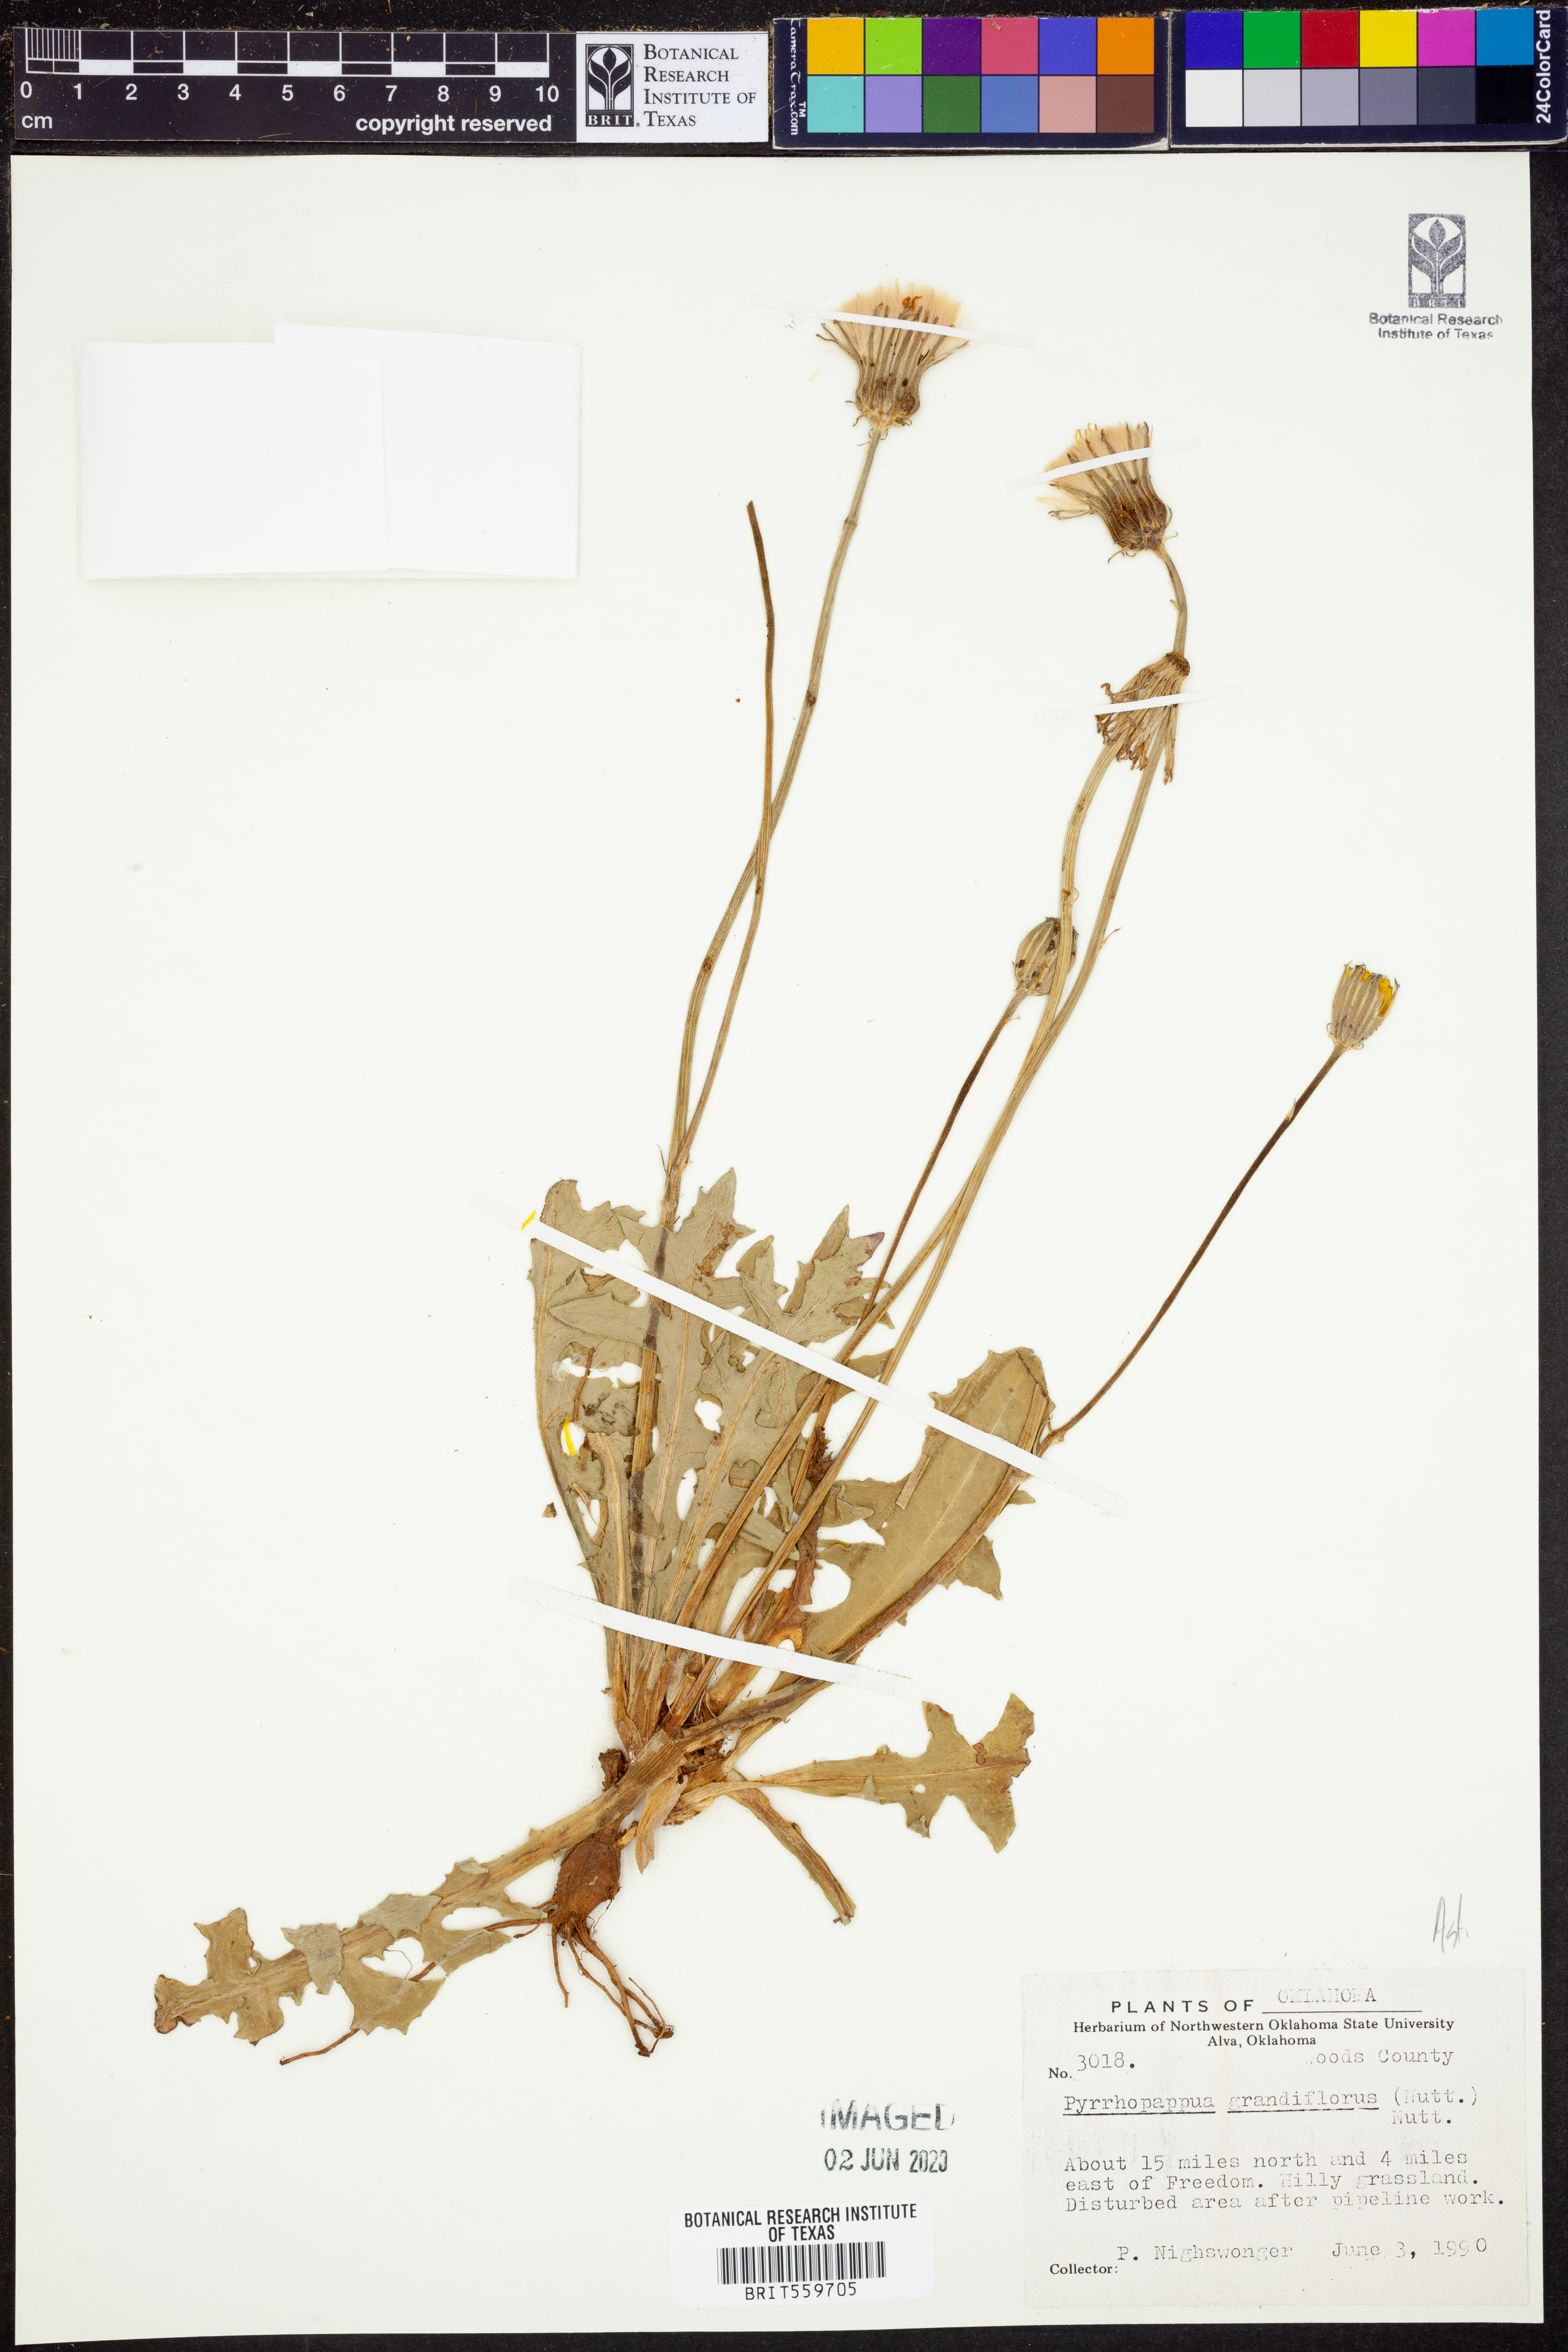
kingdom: Plantae
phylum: Tracheophyta
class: Magnoliopsida
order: Asterales
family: Asteraceae
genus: Pyrrhopappus
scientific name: Pyrrhopappus grandiflorus
